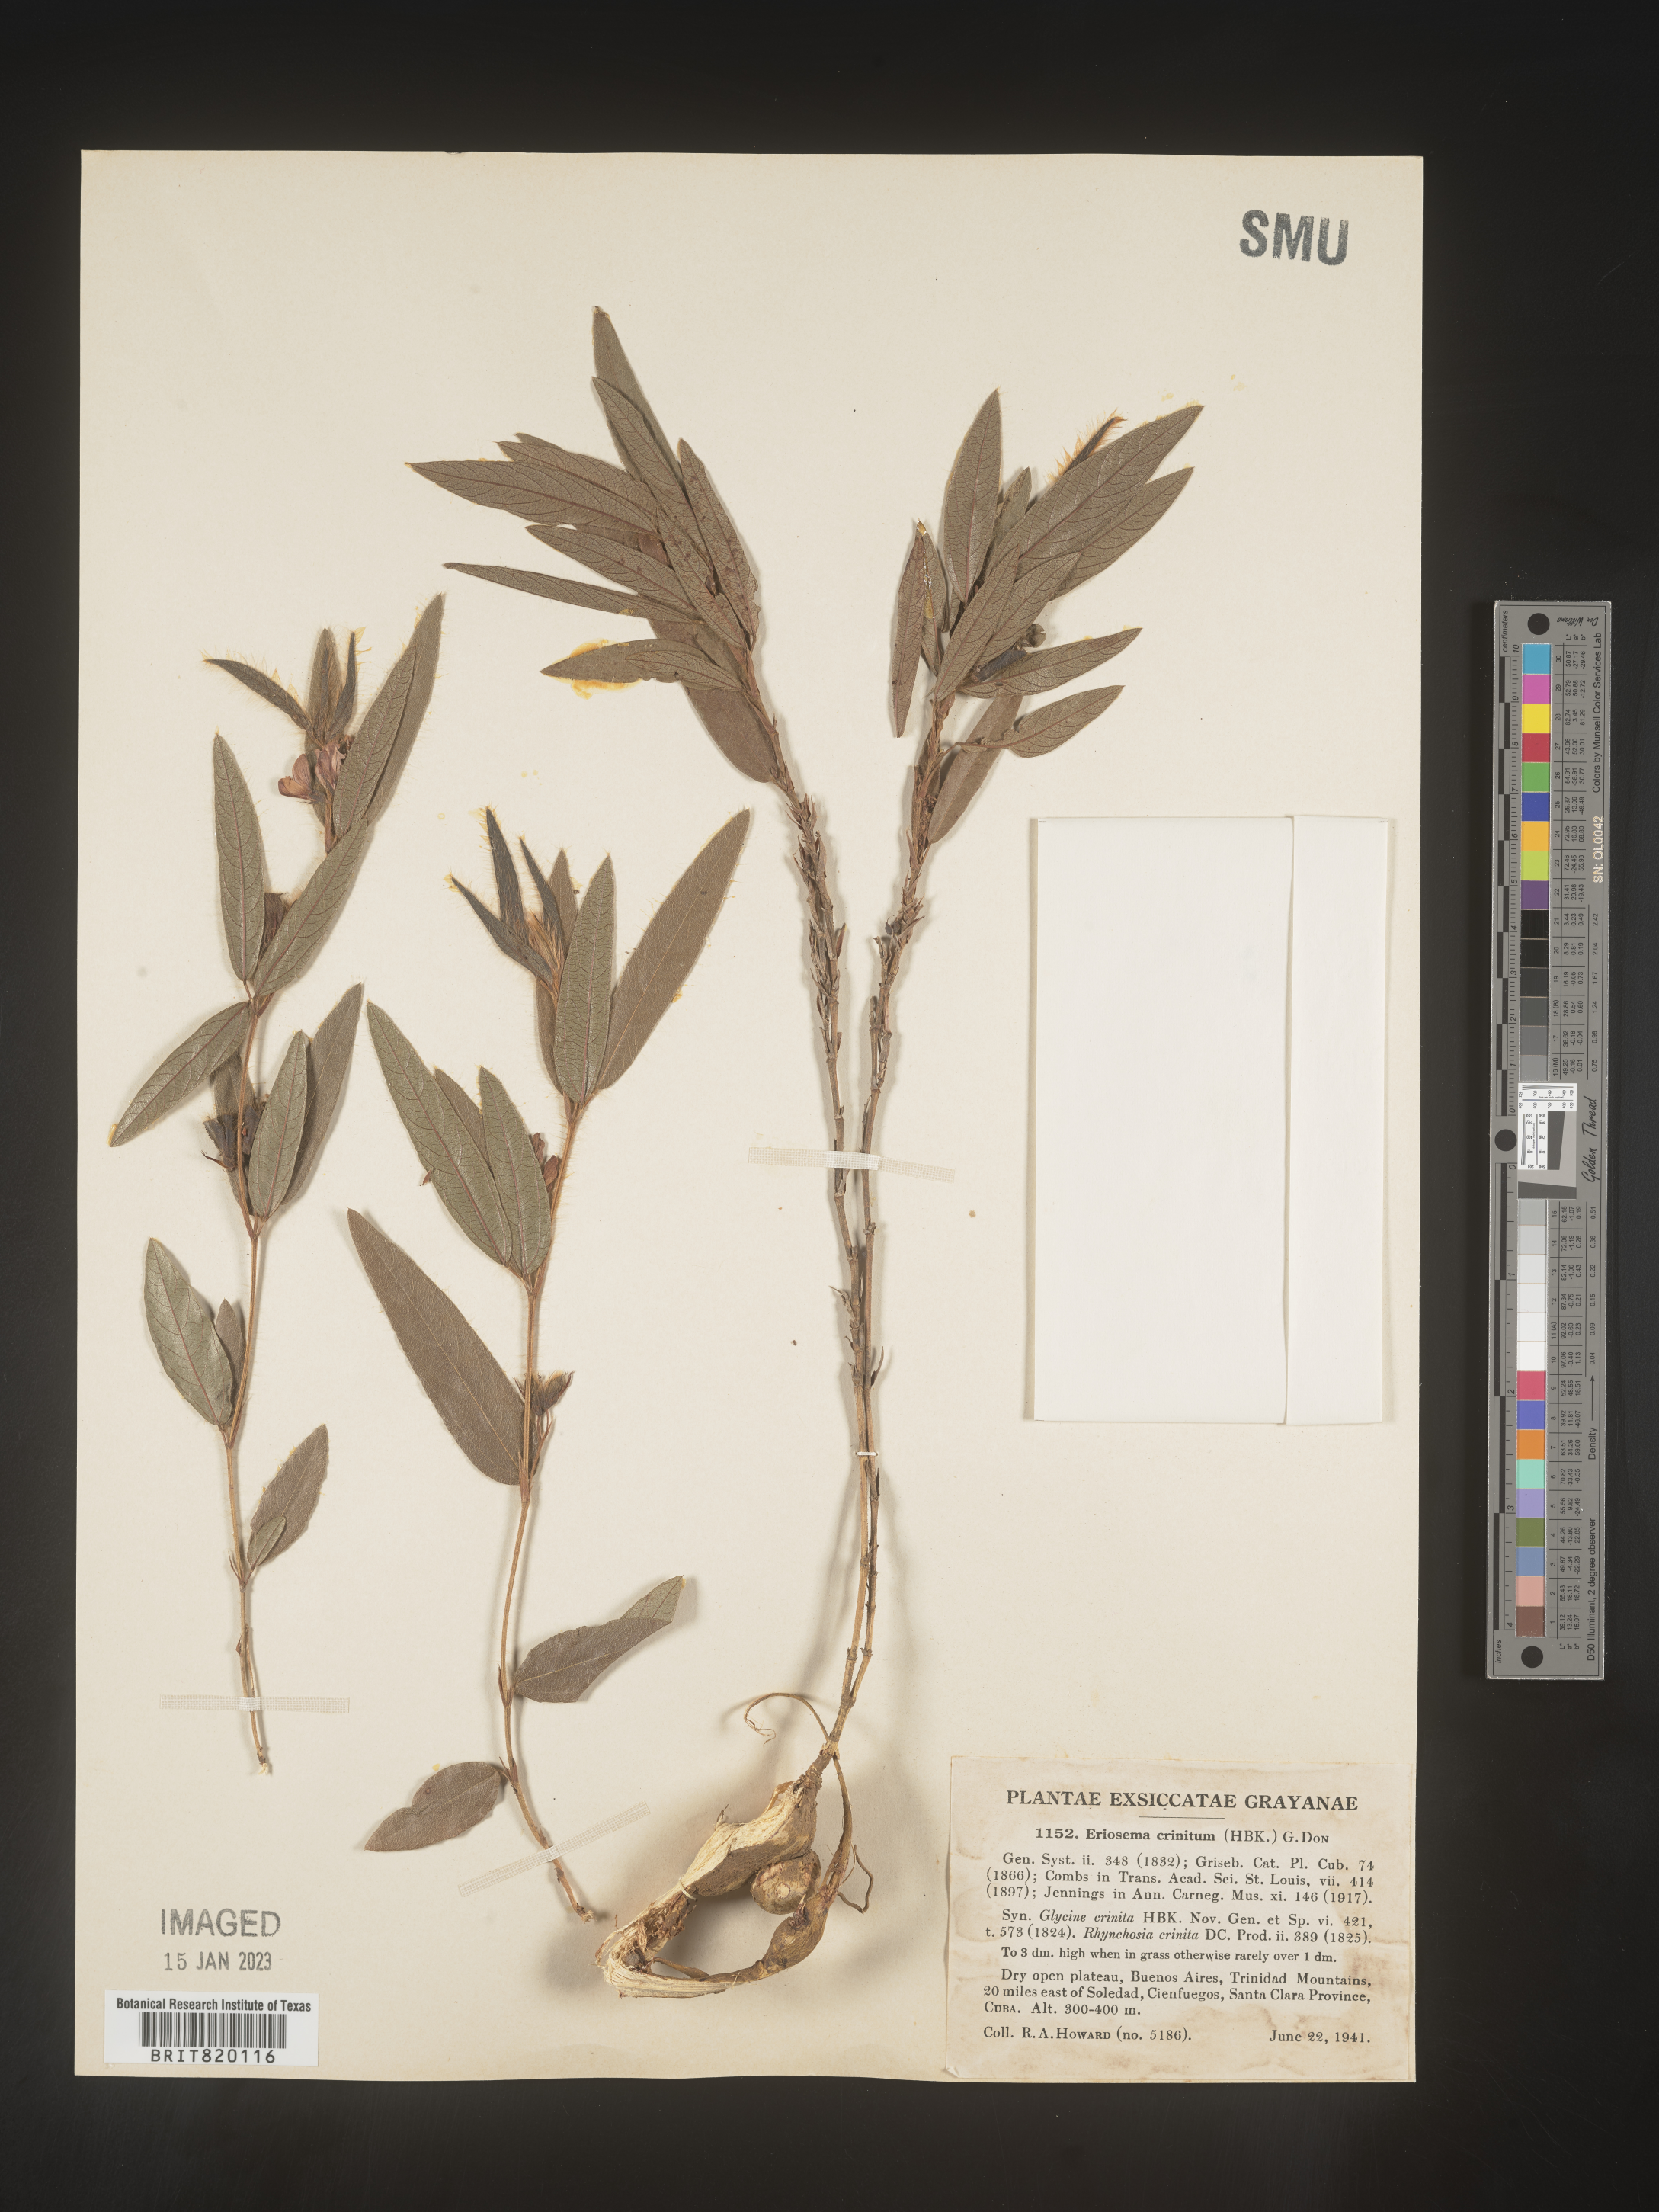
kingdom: Plantae
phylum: Tracheophyta
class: Magnoliopsida
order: Fabales
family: Fabaceae
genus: Eriosema
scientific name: Eriosema
